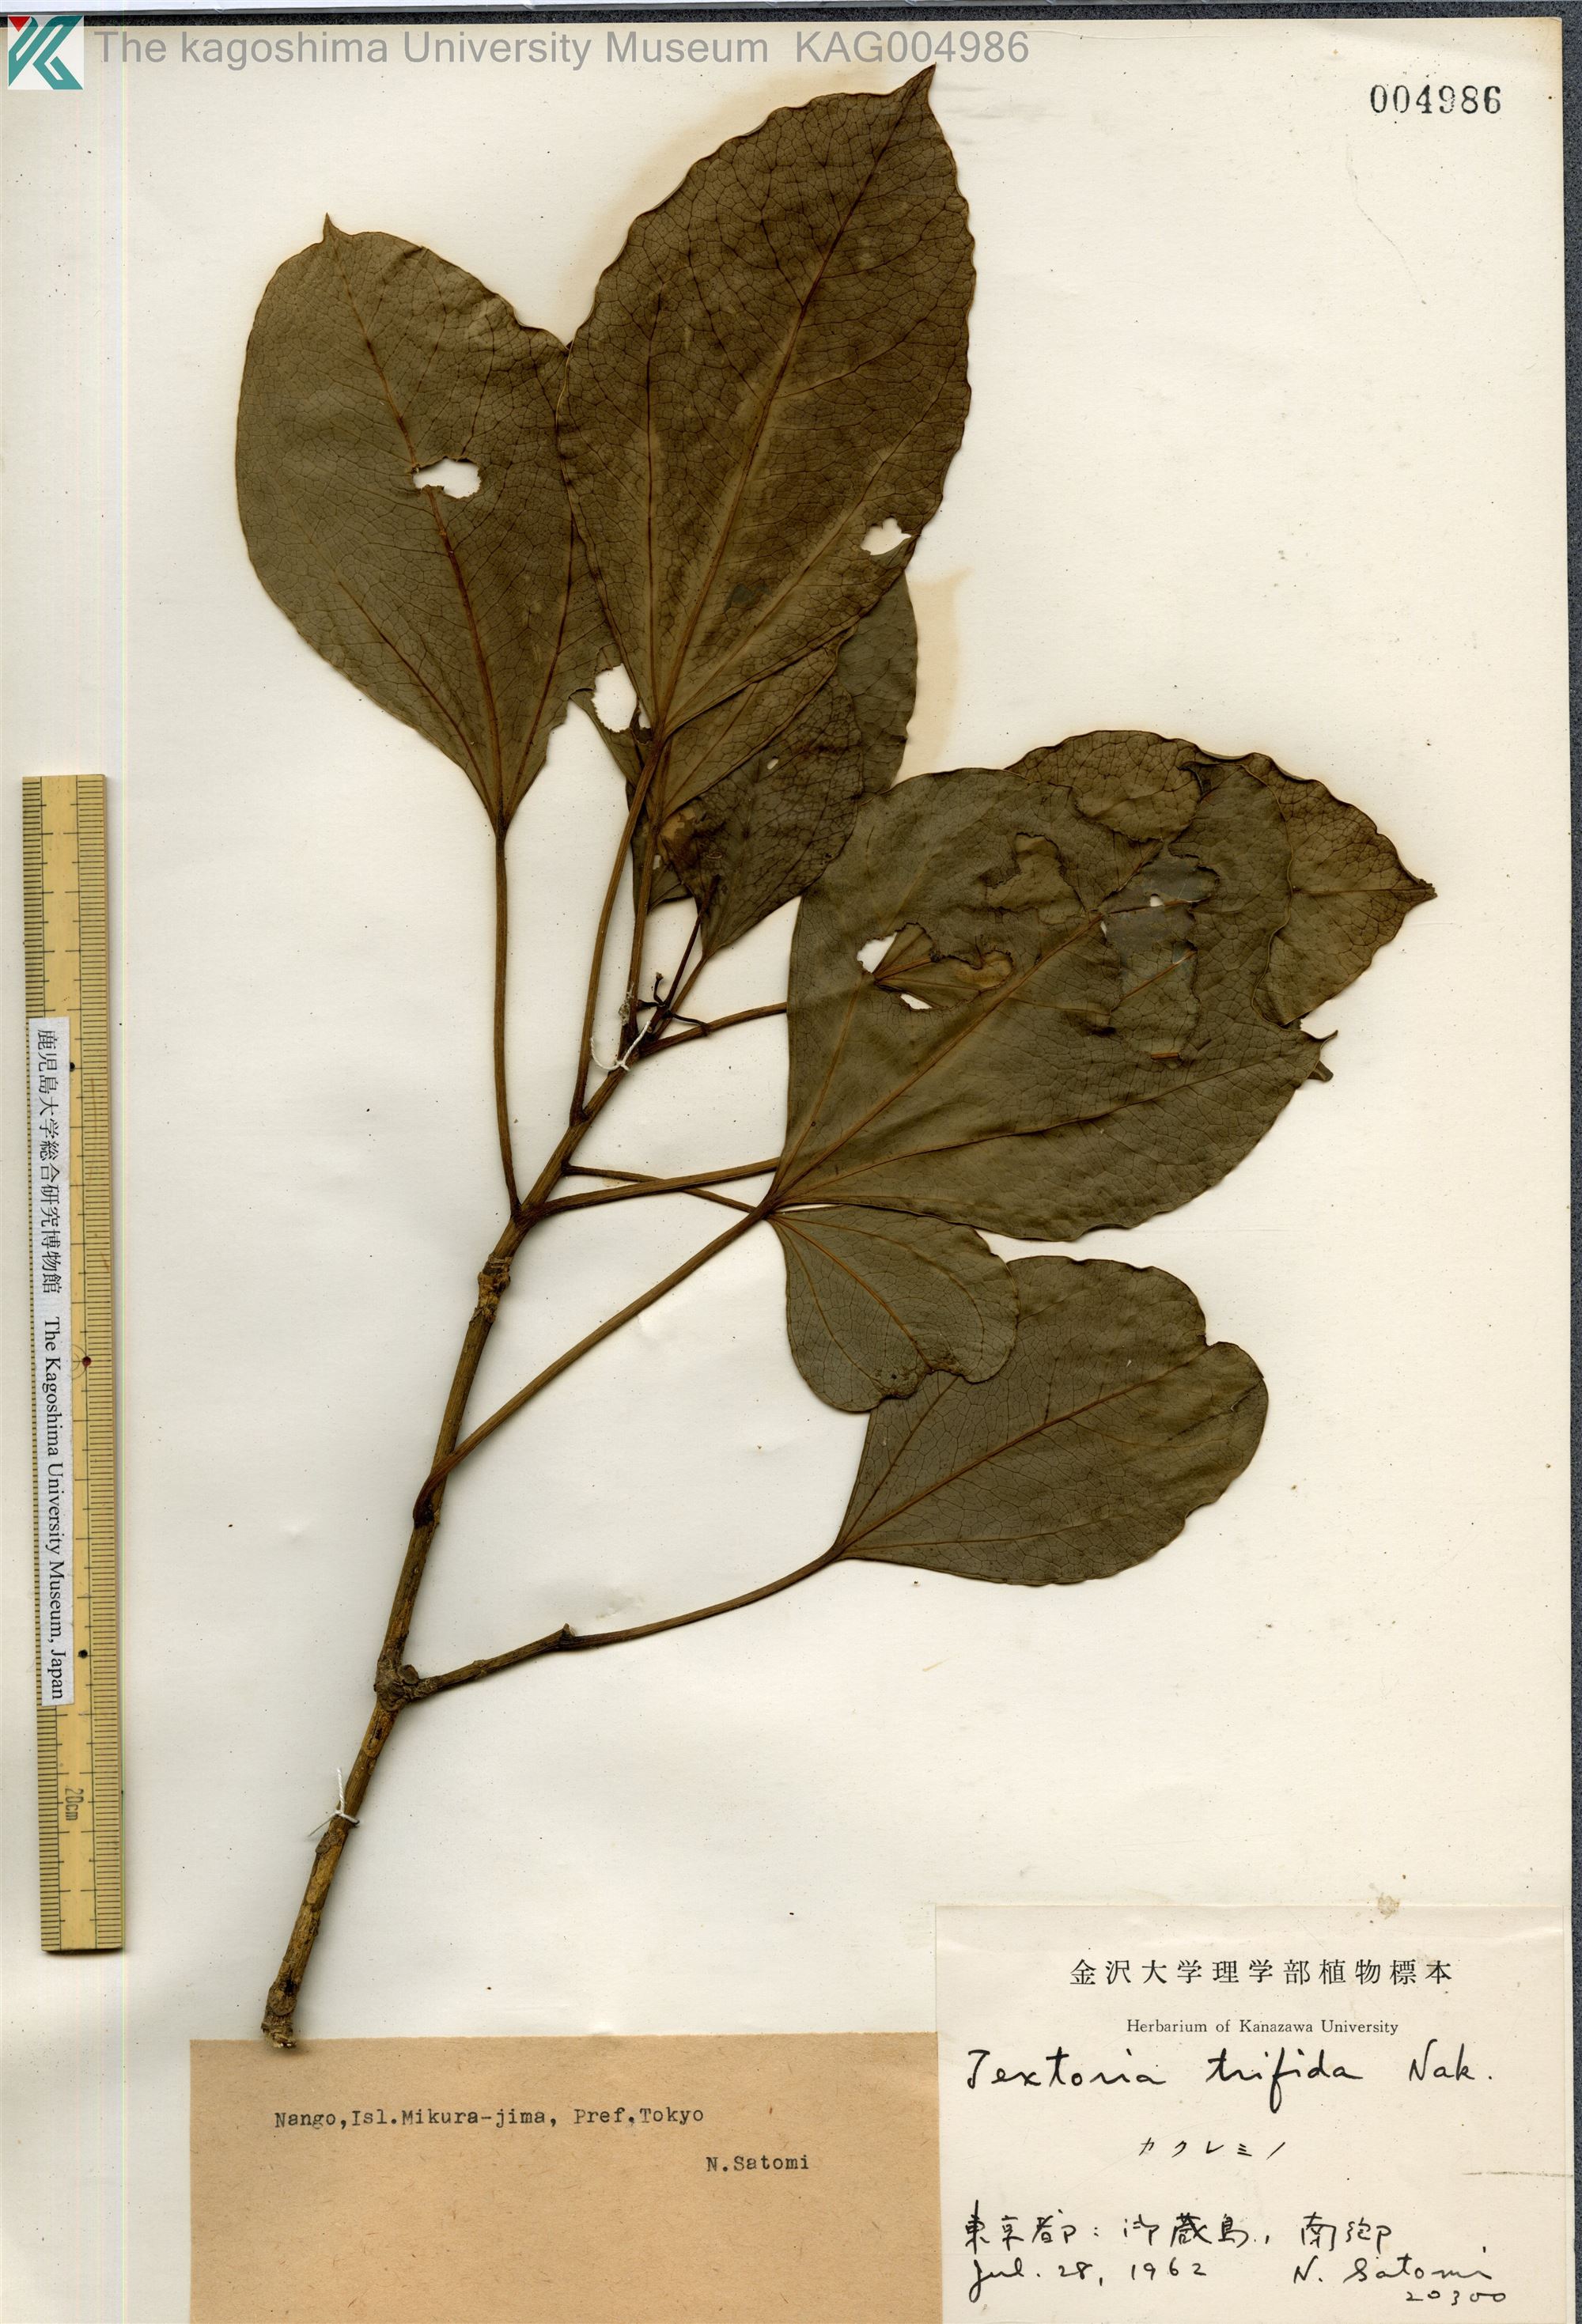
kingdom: Plantae
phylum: Tracheophyta
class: Magnoliopsida
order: Apiales
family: Araliaceae
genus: Dendropanax
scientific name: Dendropanax trifidus
